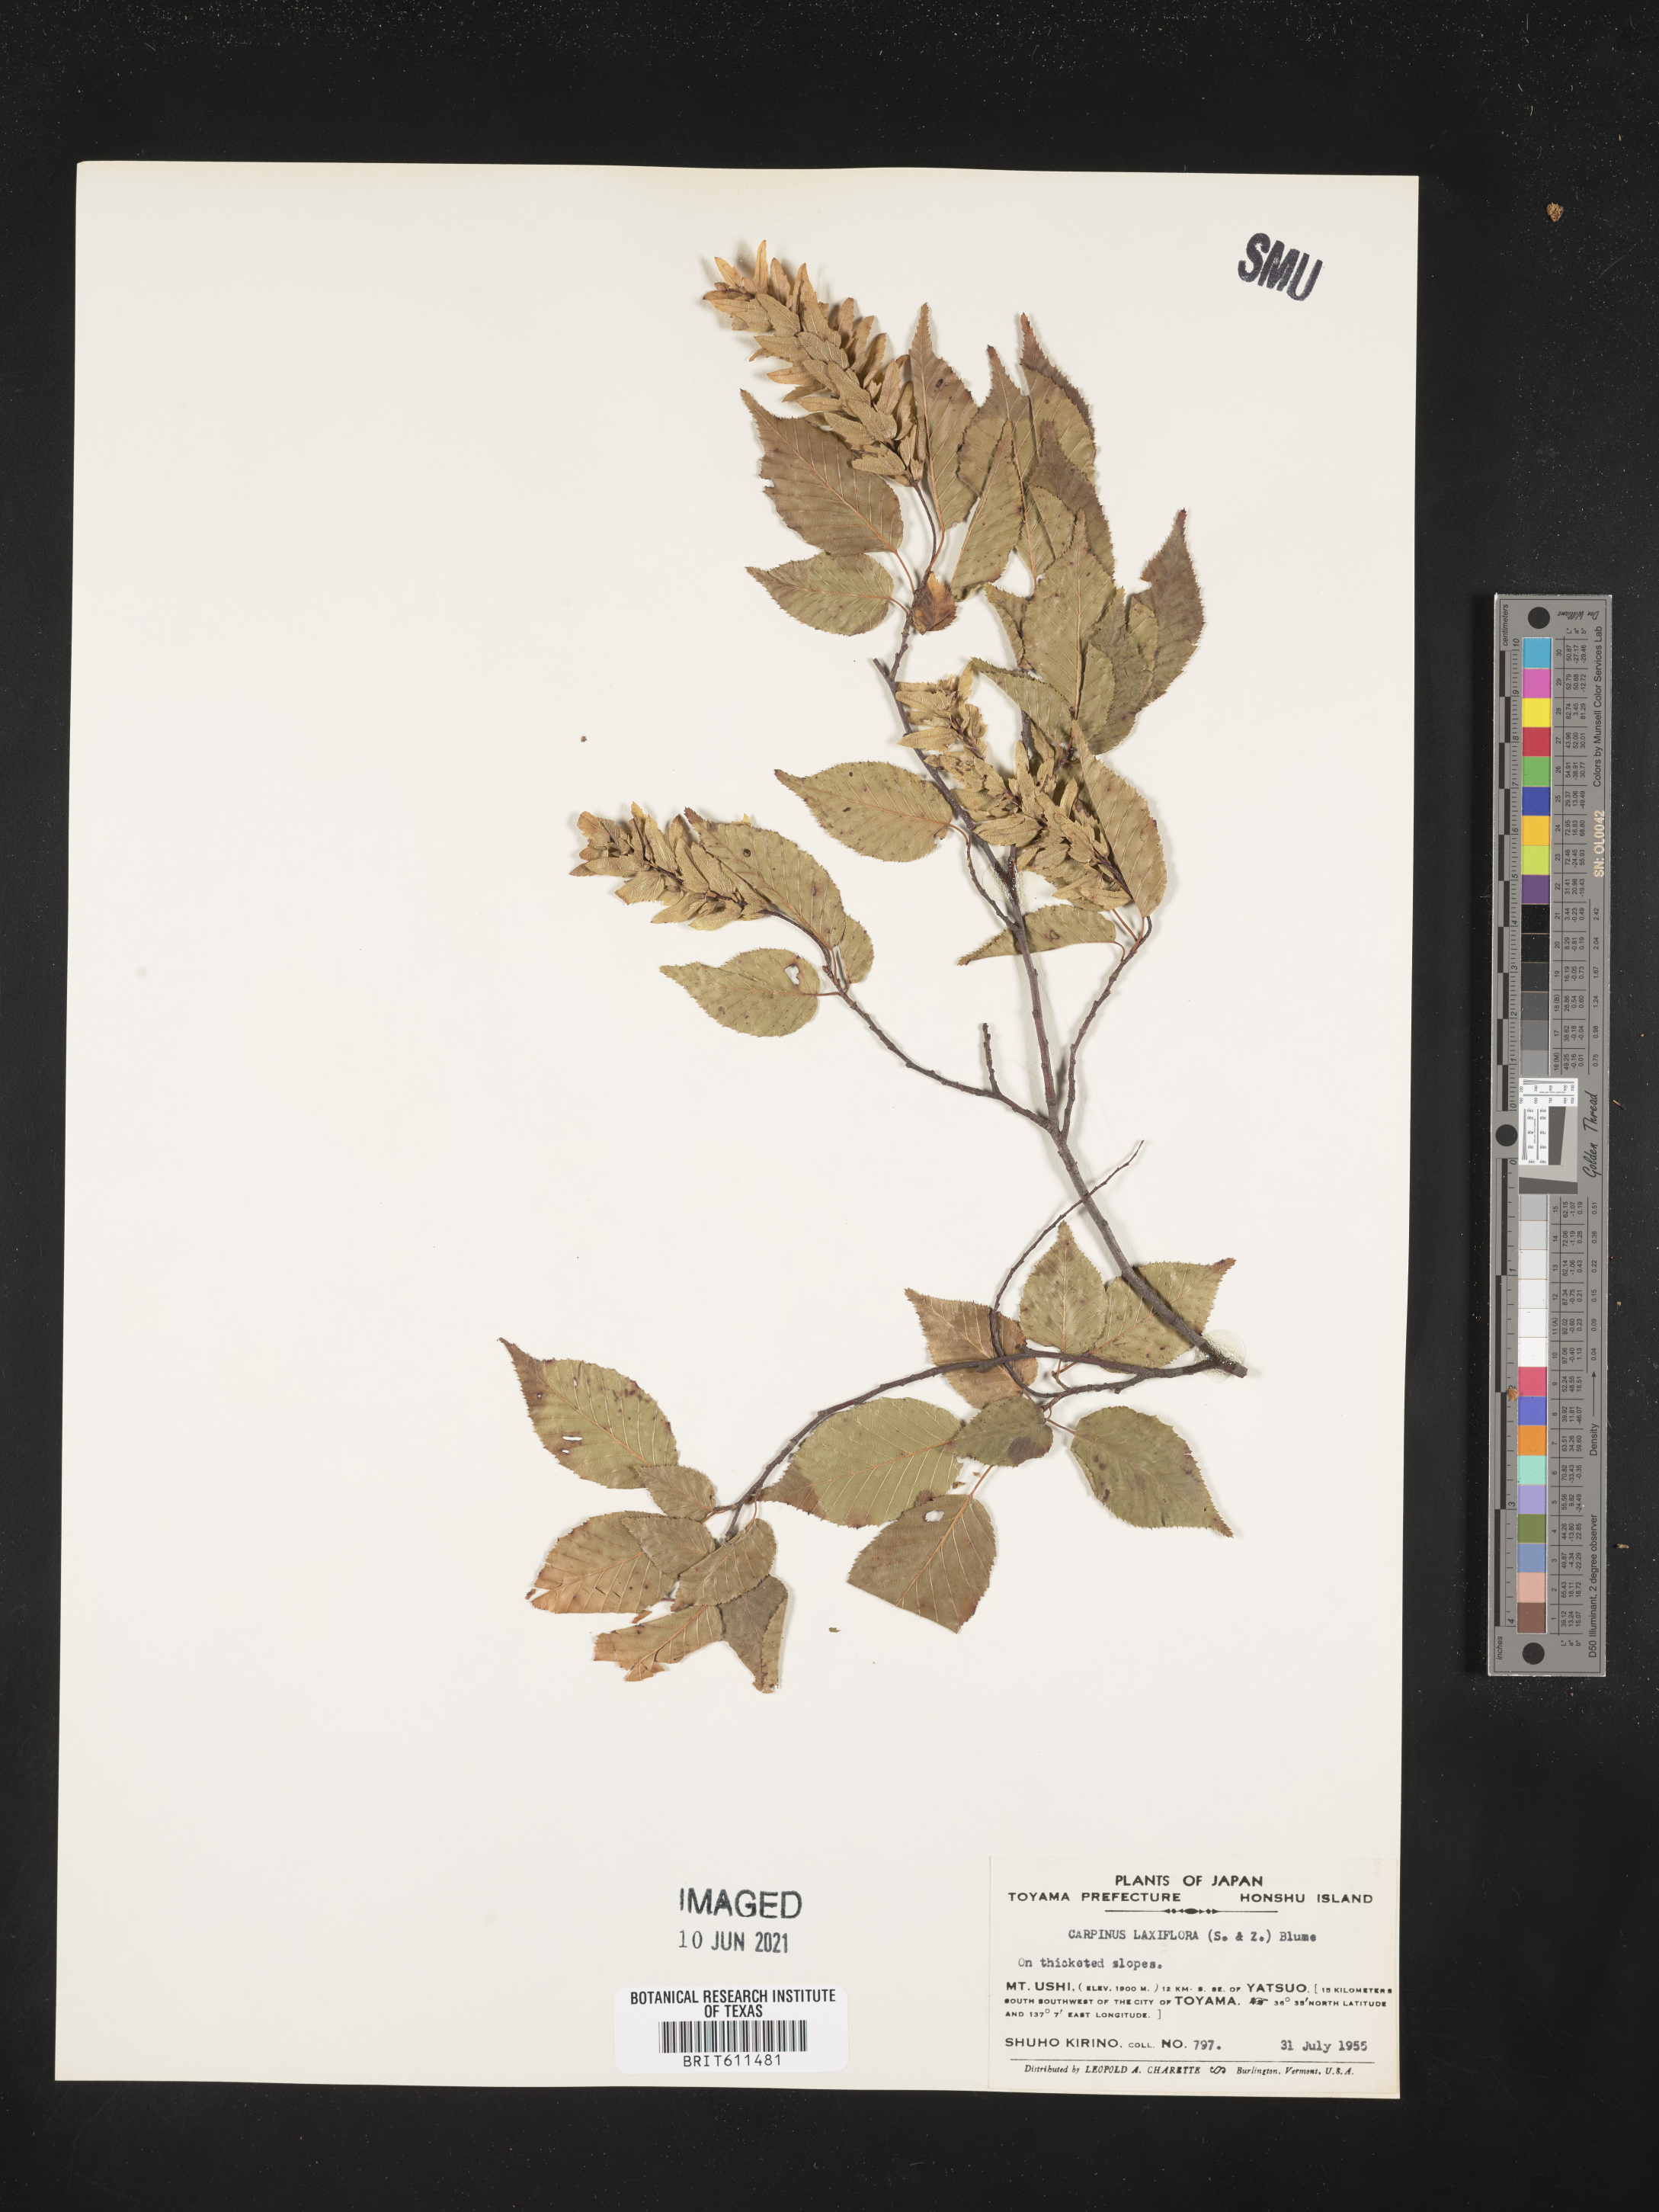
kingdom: Plantae
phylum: Tracheophyta
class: Magnoliopsida
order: Fagales
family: Betulaceae
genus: Carpinus
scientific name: Carpinus laxiflora
